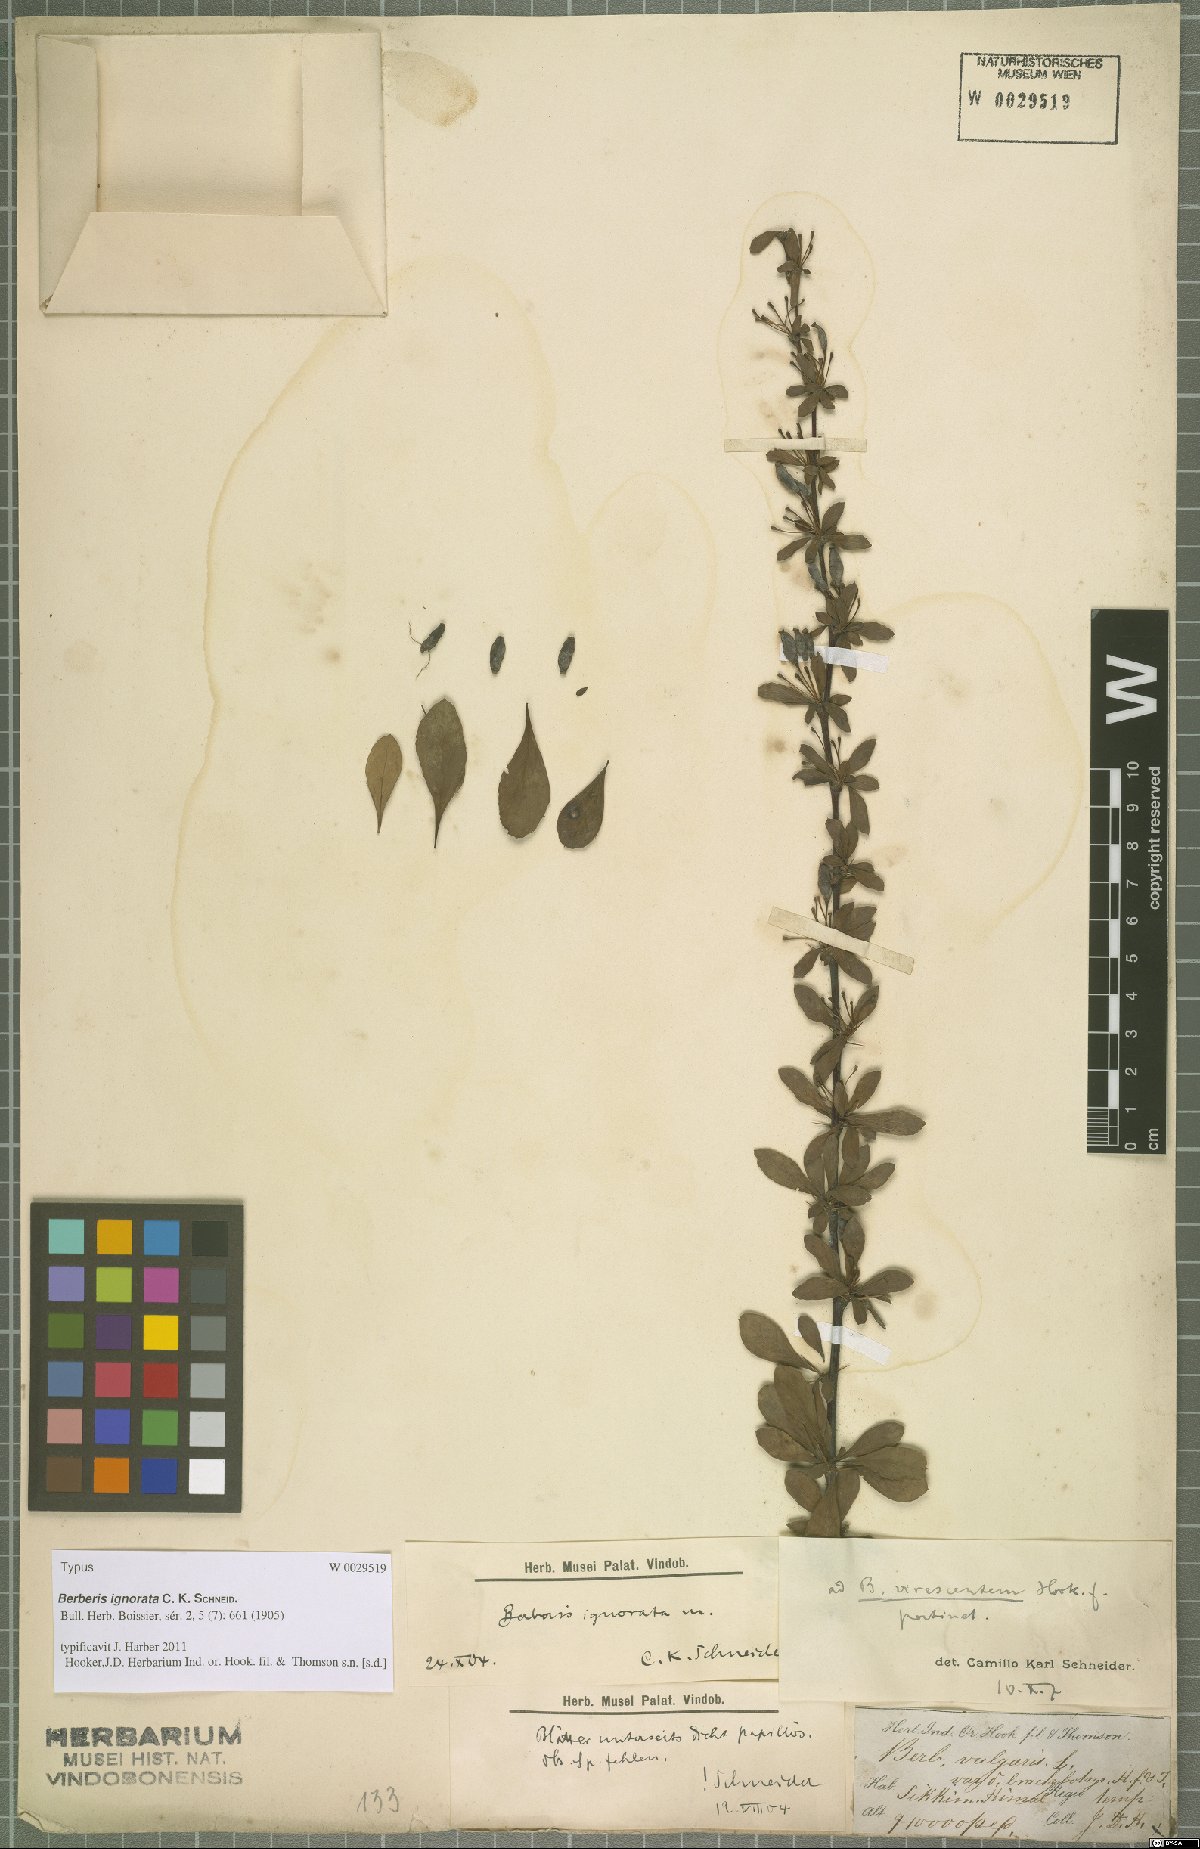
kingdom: Plantae
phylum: Tracheophyta
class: Magnoliopsida
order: Ranunculales
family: Berberidaceae
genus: Berberis
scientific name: Berberis virescens
